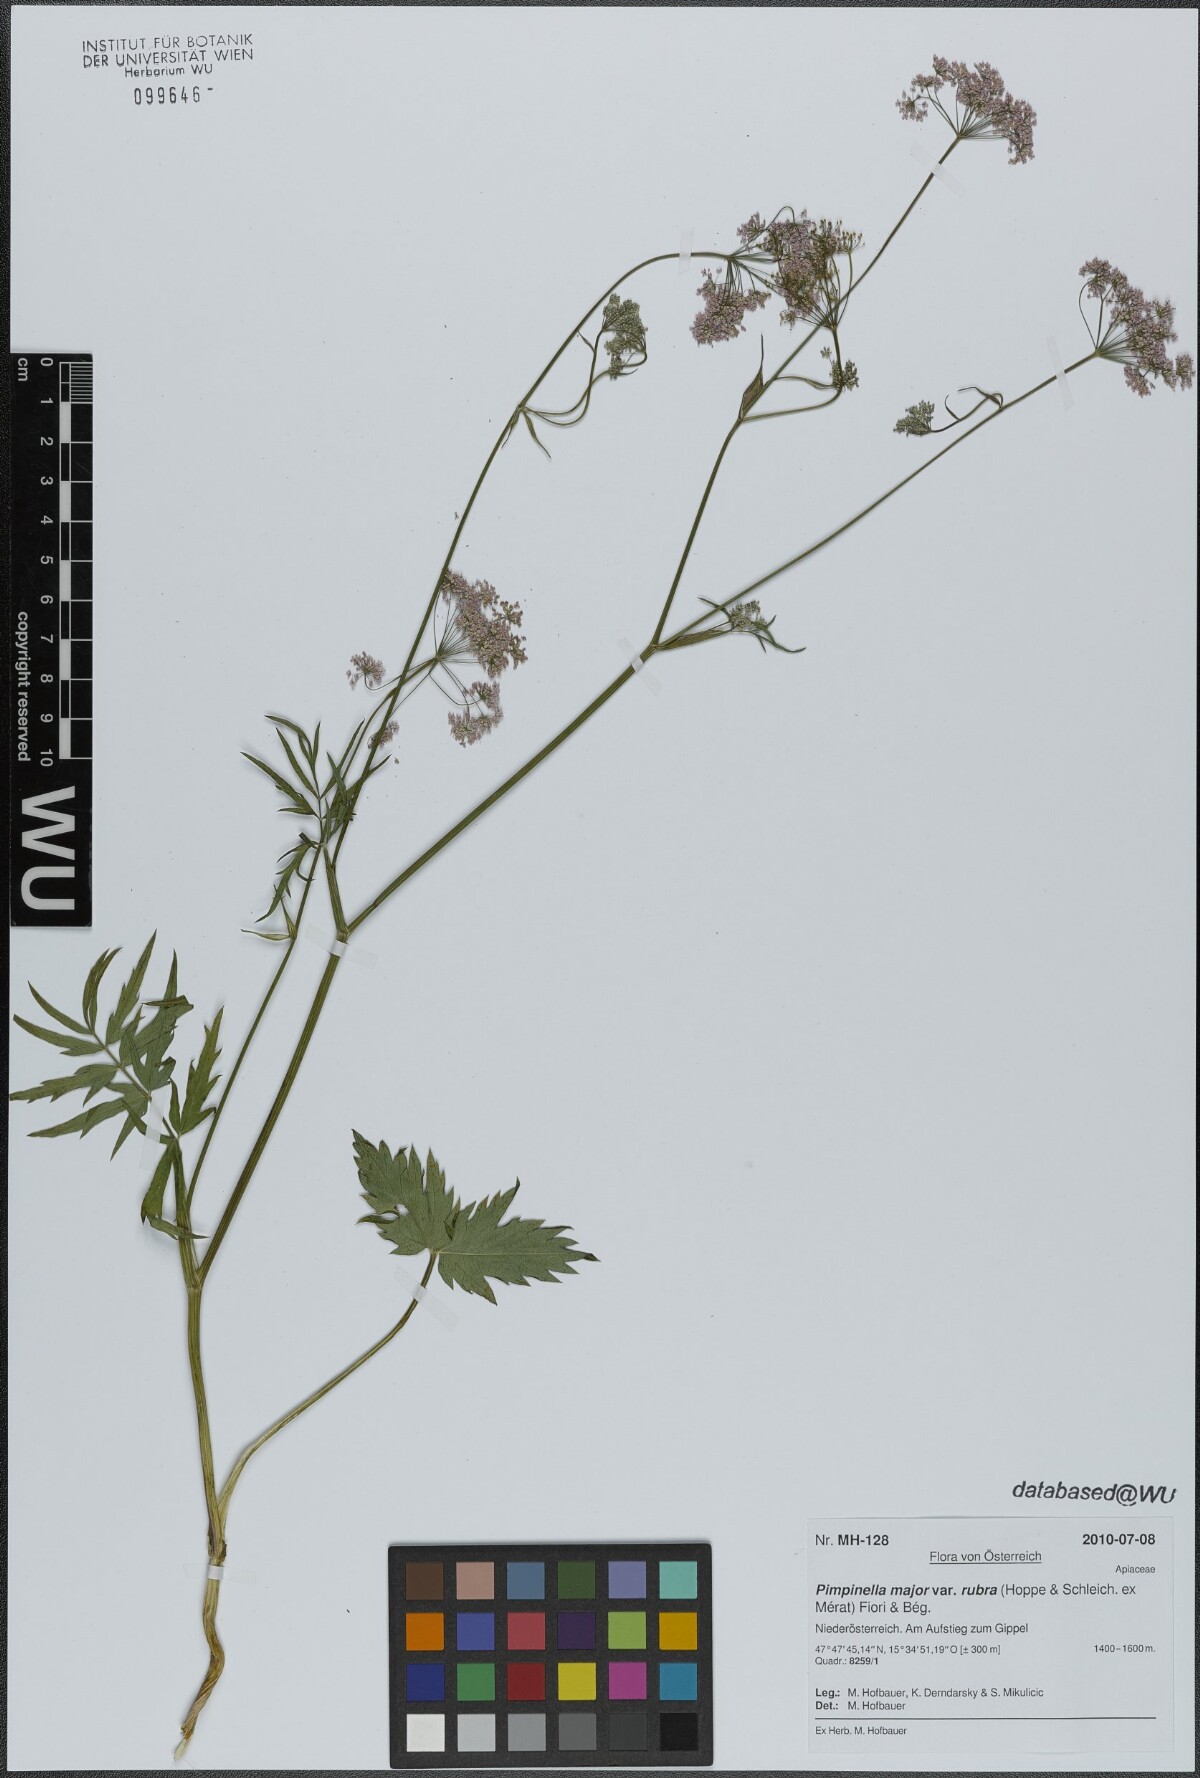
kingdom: Plantae
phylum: Tracheophyta
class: Magnoliopsida
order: Apiales
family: Apiaceae
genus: Pimpinella
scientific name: Pimpinella major
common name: Greater burnet-saxifrage
